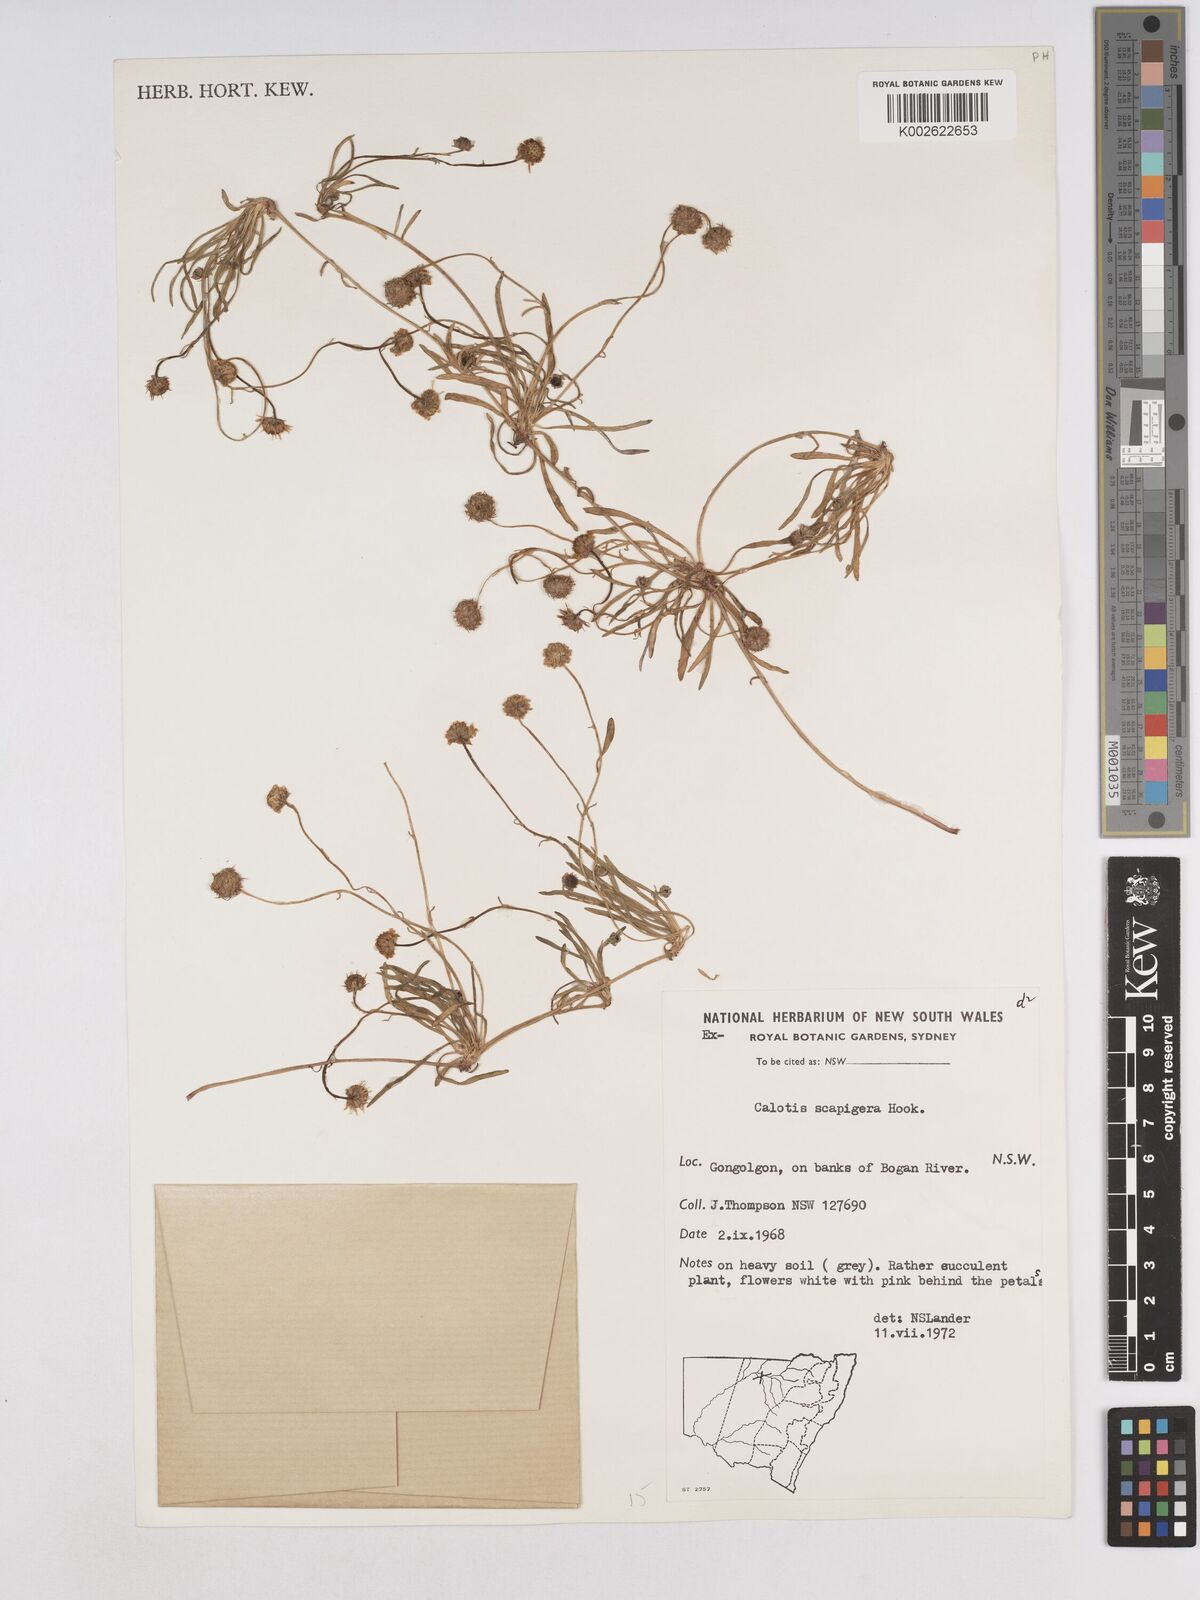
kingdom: Plantae
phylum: Tracheophyta
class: Magnoliopsida
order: Asterales
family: Asteraceae
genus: Calotis
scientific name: Calotis scapigera
